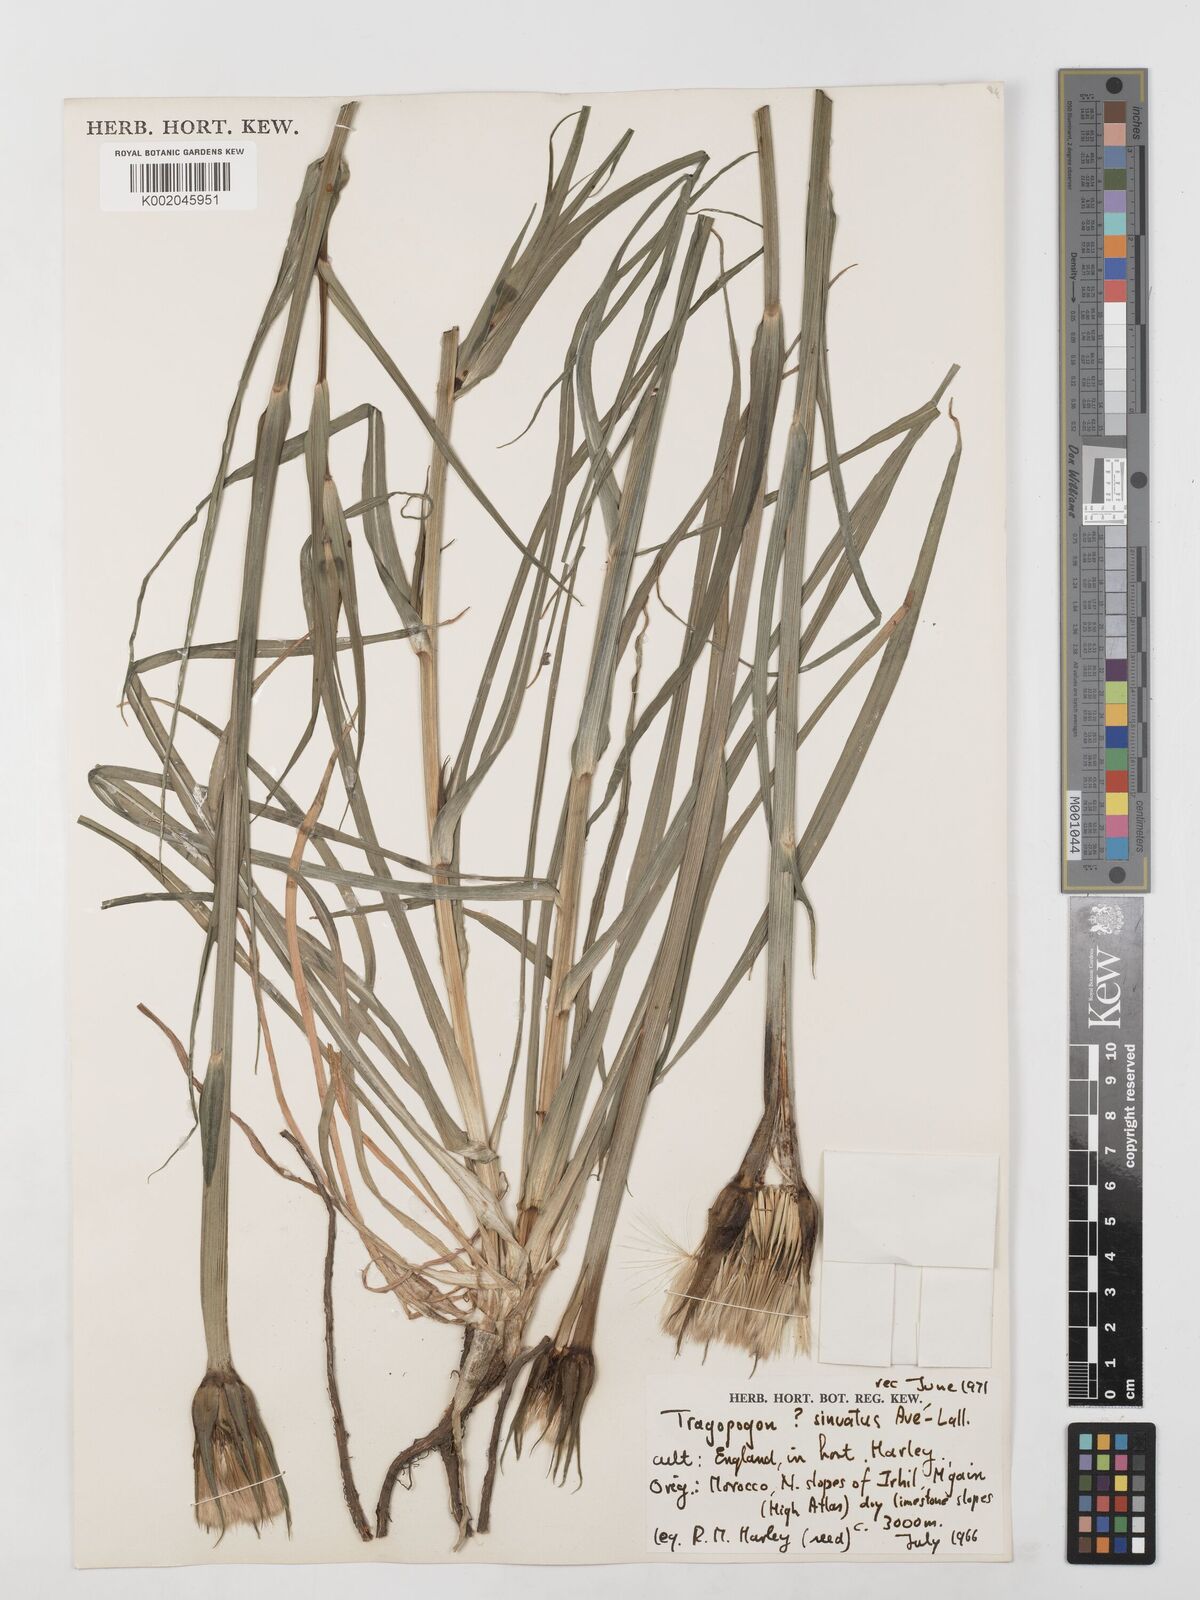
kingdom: Plantae
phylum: Tracheophyta
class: Magnoliopsida
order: Asterales
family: Asteraceae
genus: Tragopogon
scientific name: Tragopogon porrifolius
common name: Salsify
